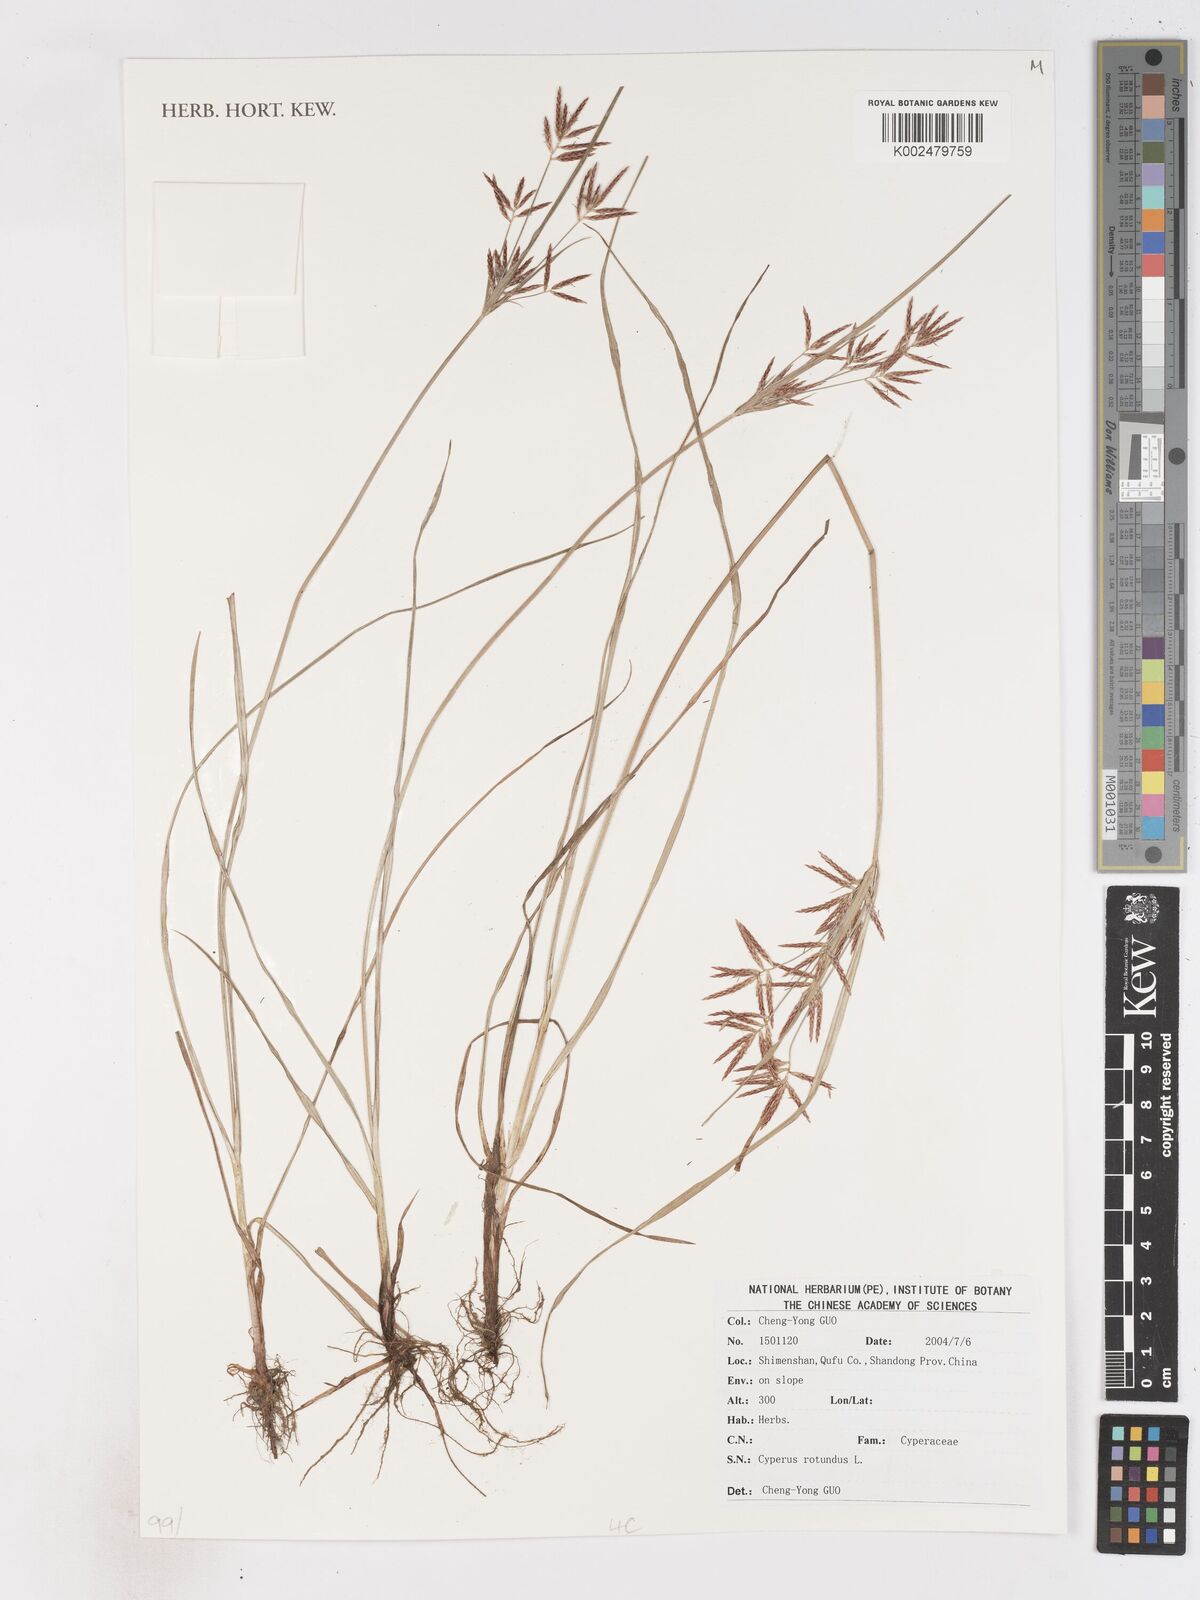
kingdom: Plantae
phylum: Tracheophyta
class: Liliopsida
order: Poales
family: Cyperaceae
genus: Cyperus
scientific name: Cyperus rotundus
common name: Nutgrass
